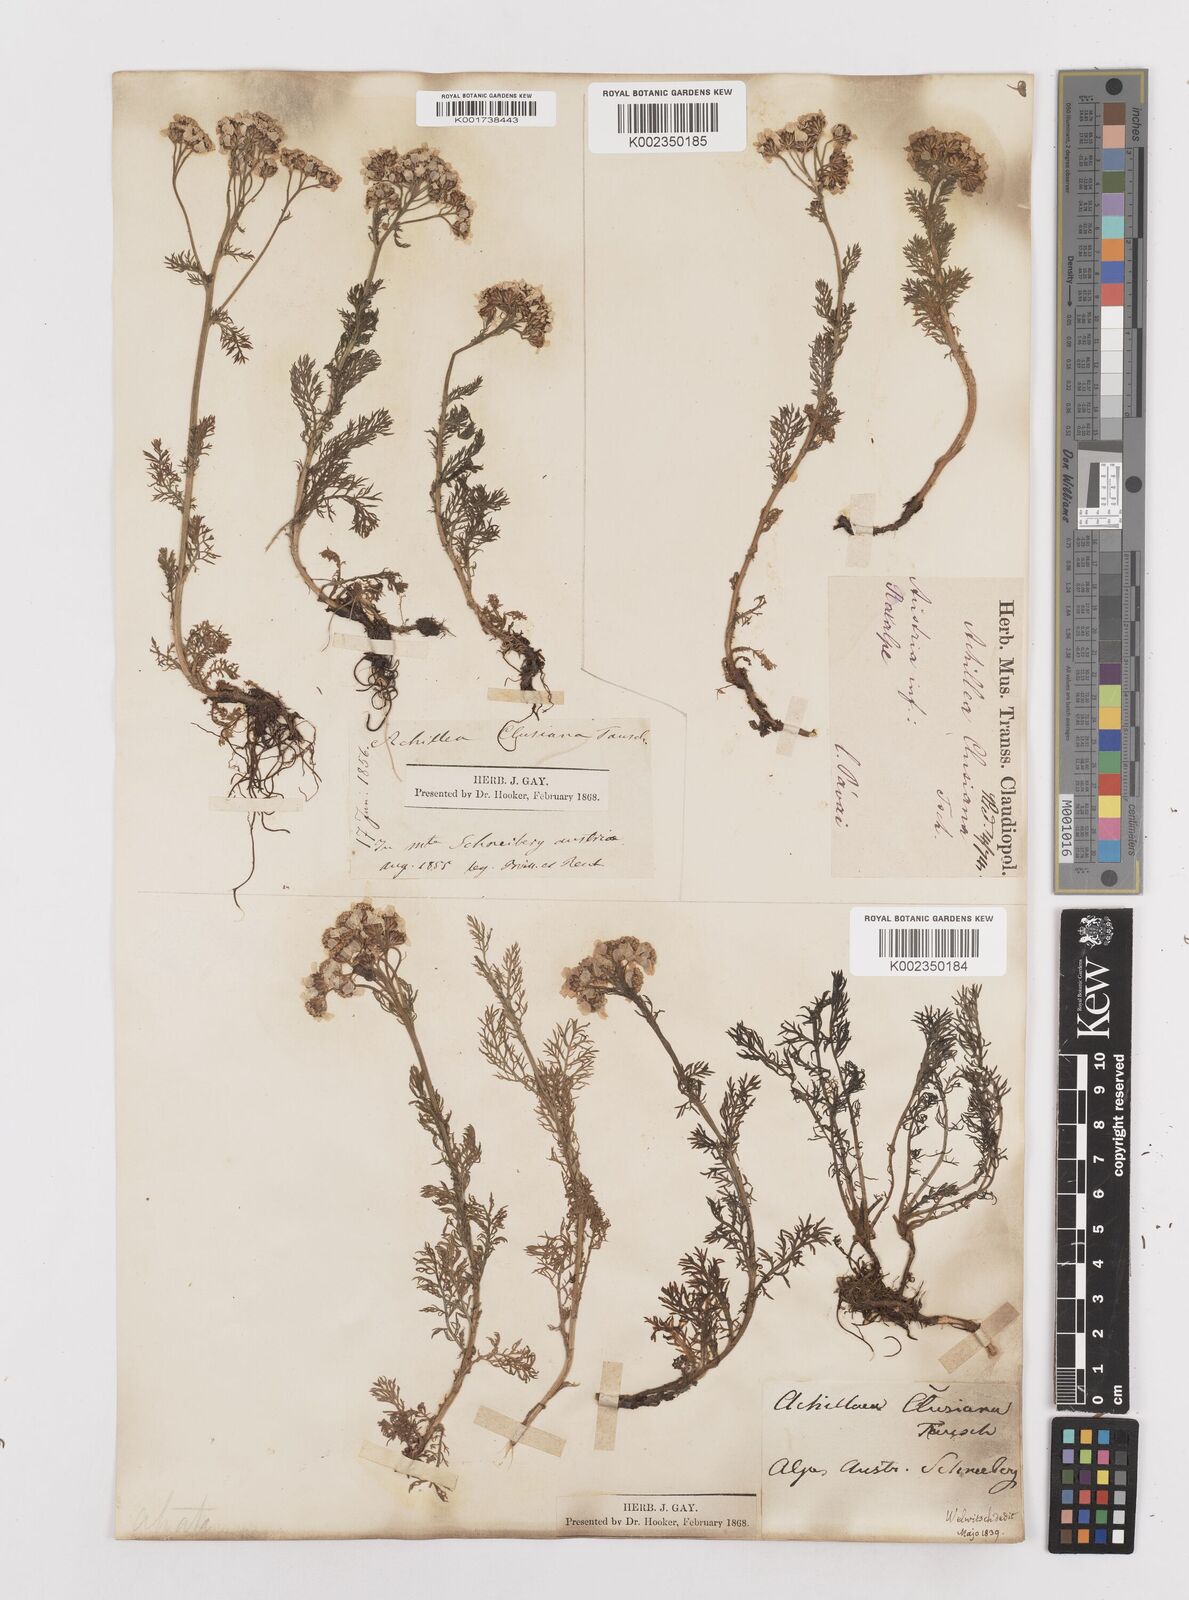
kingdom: Plantae
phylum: Tracheophyta
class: Magnoliopsida
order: Asterales
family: Asteraceae
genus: Achillea
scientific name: Achillea clusiana
